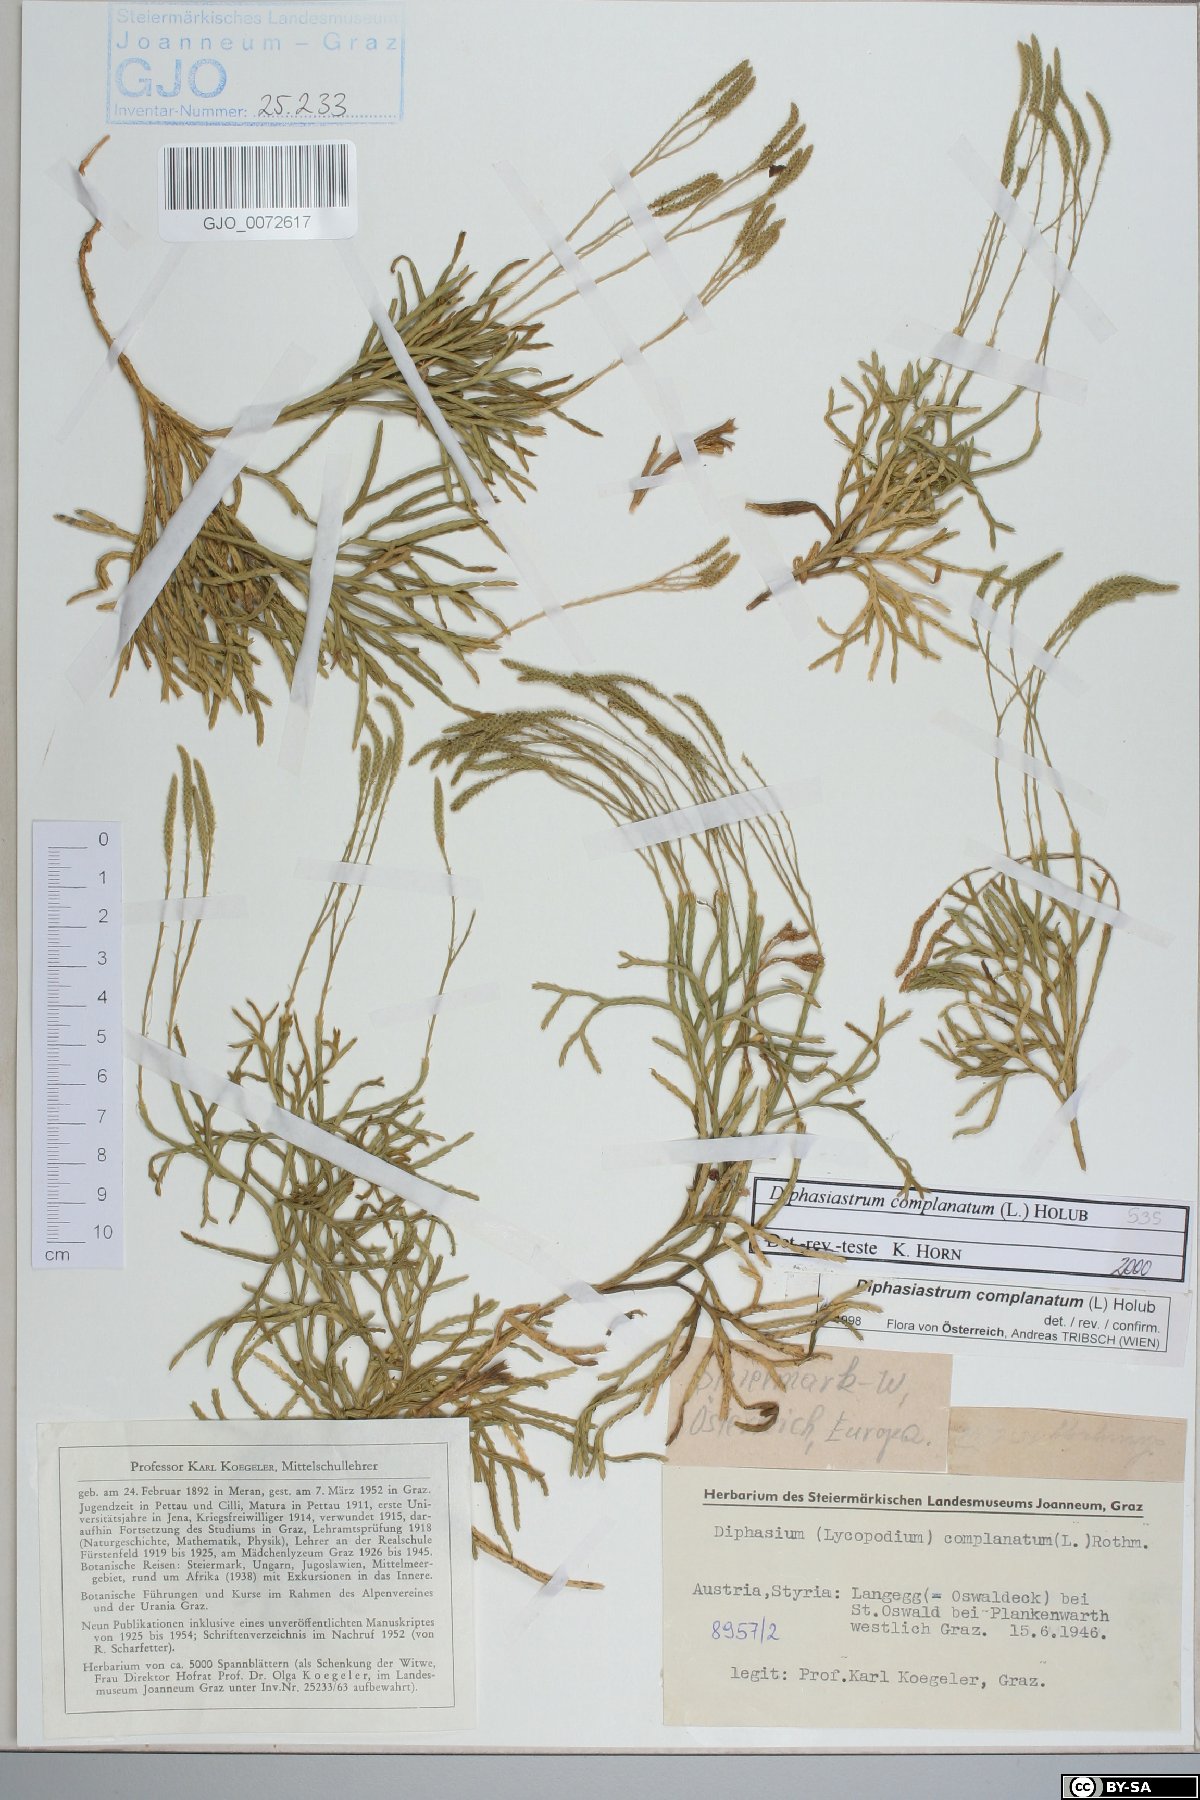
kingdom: Plantae
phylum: Tracheophyta
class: Lycopodiopsida
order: Lycopodiales
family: Lycopodiaceae
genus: Diphasiastrum
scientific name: Diphasiastrum complanatum
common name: Northern running-pine
